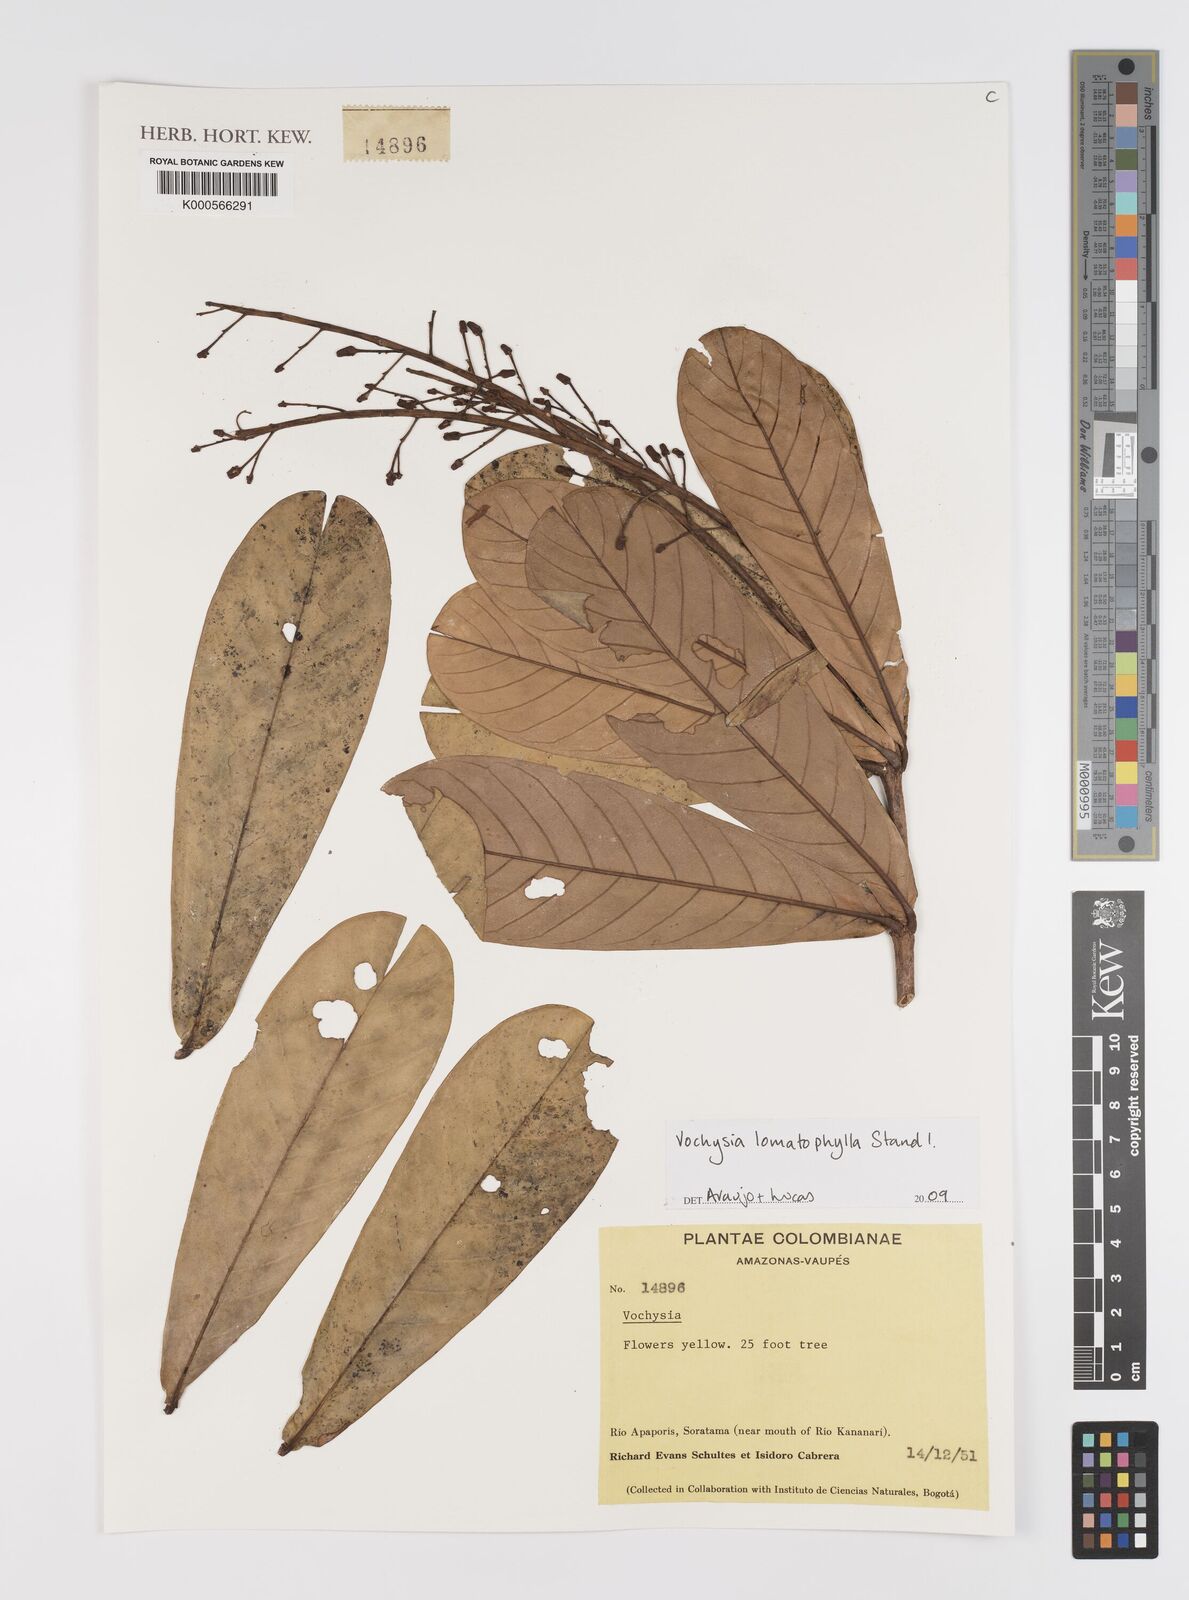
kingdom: Plantae
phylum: Tracheophyta
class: Magnoliopsida
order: Myrtales
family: Vochysiaceae
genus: Vochysia
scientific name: Vochysia lomatophylla
